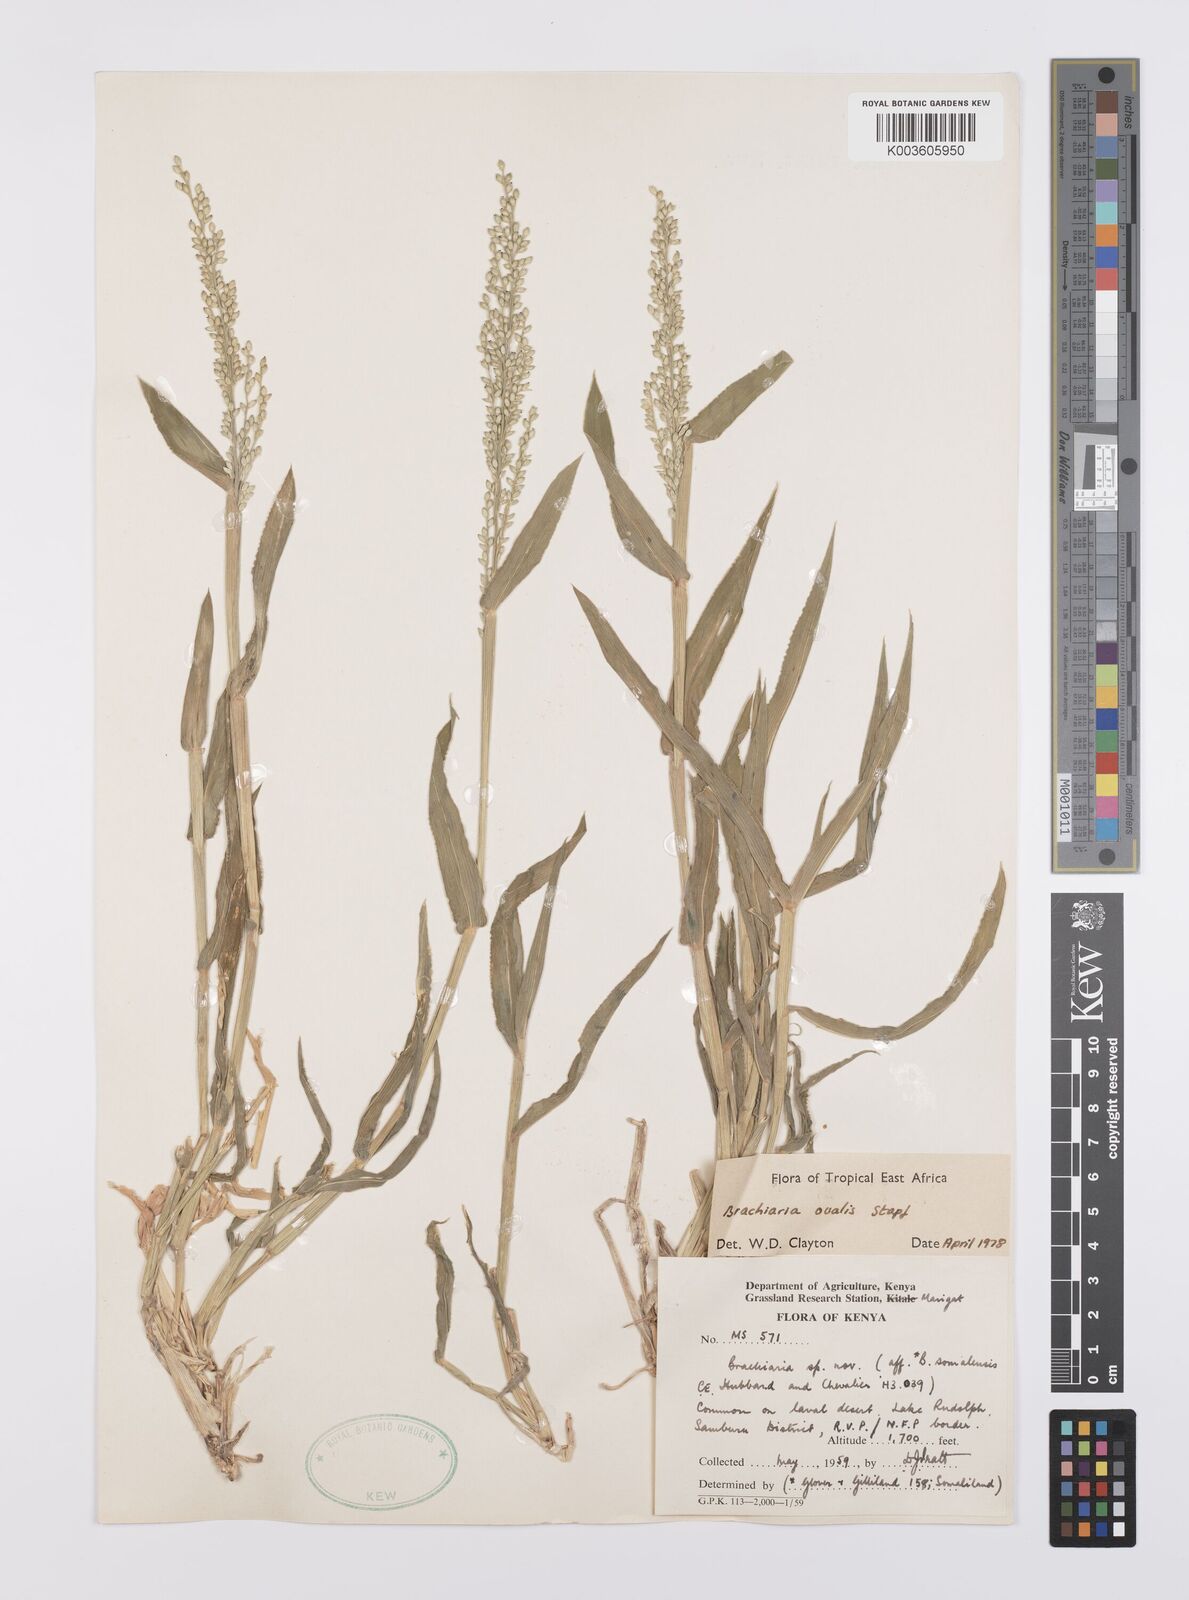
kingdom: Plantae
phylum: Tracheophyta
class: Liliopsida
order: Poales
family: Poaceae
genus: Urochloa
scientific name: Urochloa ovalis
